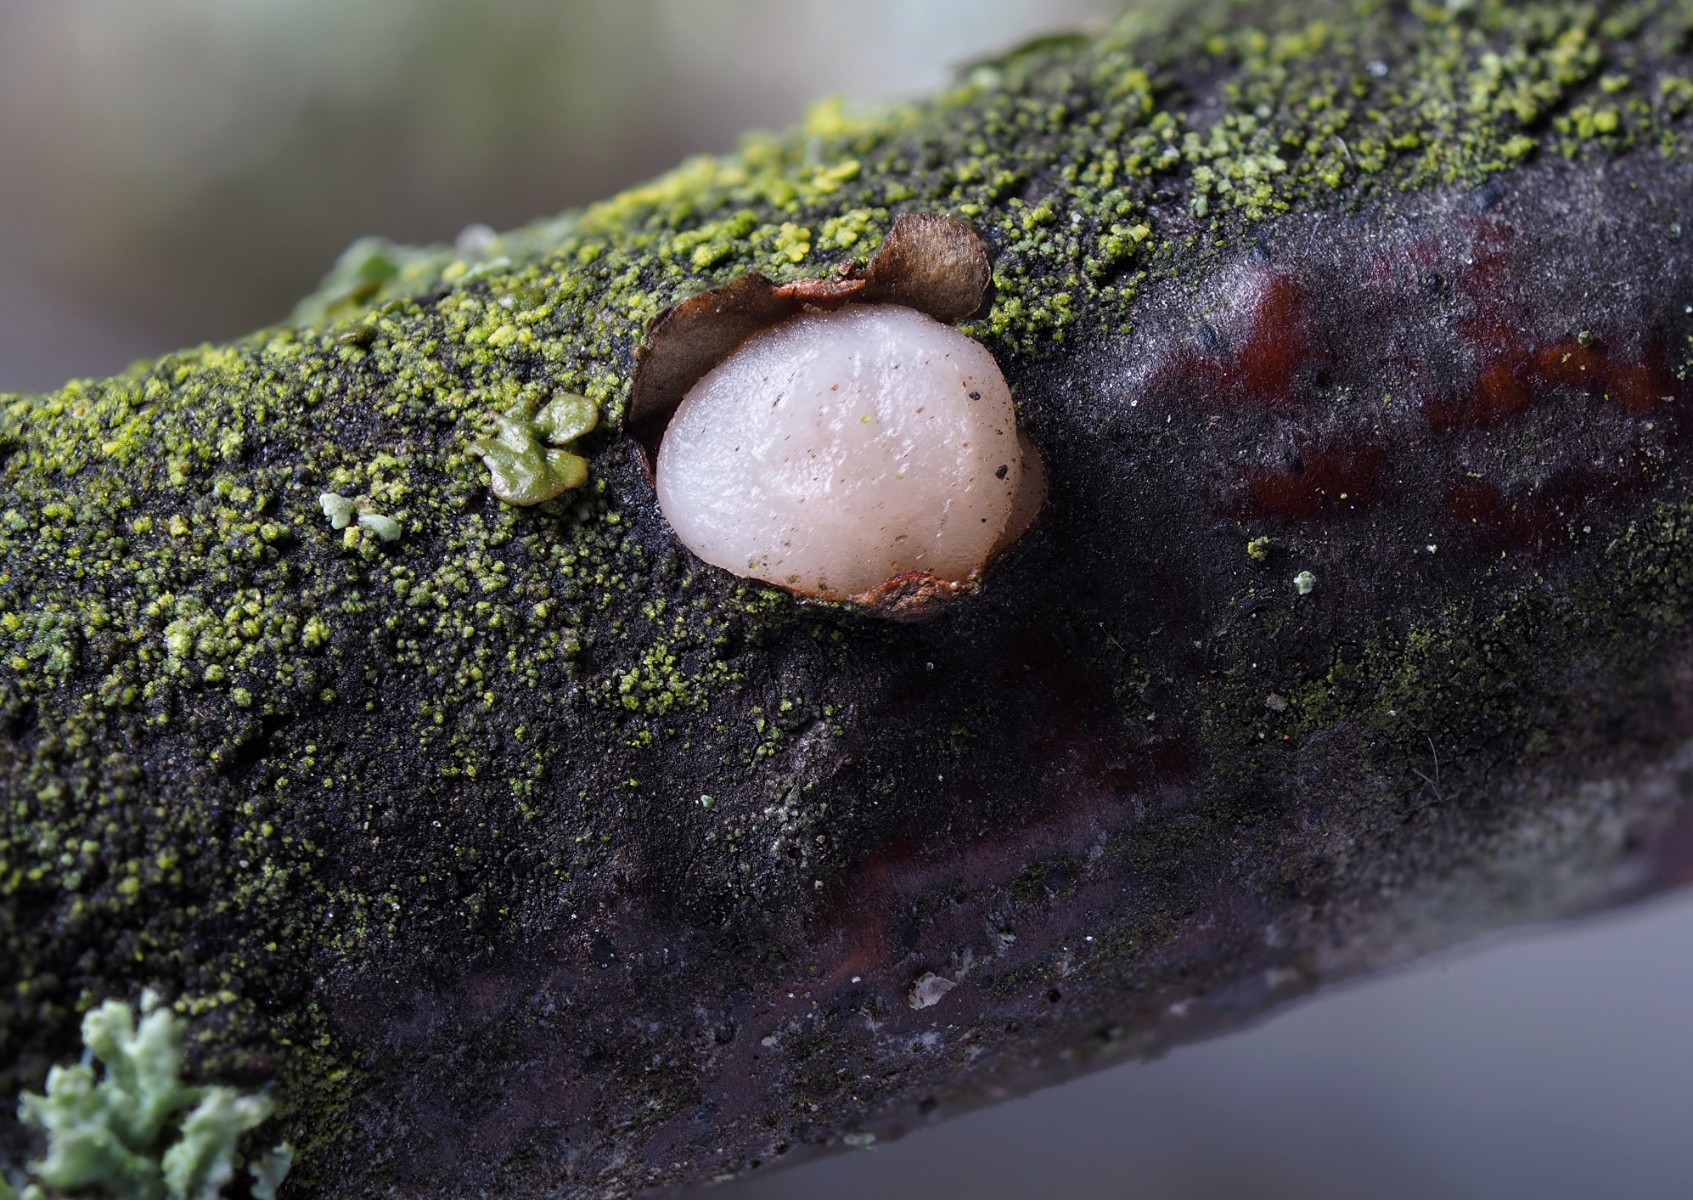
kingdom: Fungi
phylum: Basidiomycota
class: Pucciniomycetes
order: Platygloeales
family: Platygloeaceae
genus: Platygloea
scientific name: Platygloea disciformis
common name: linde-slimklat
